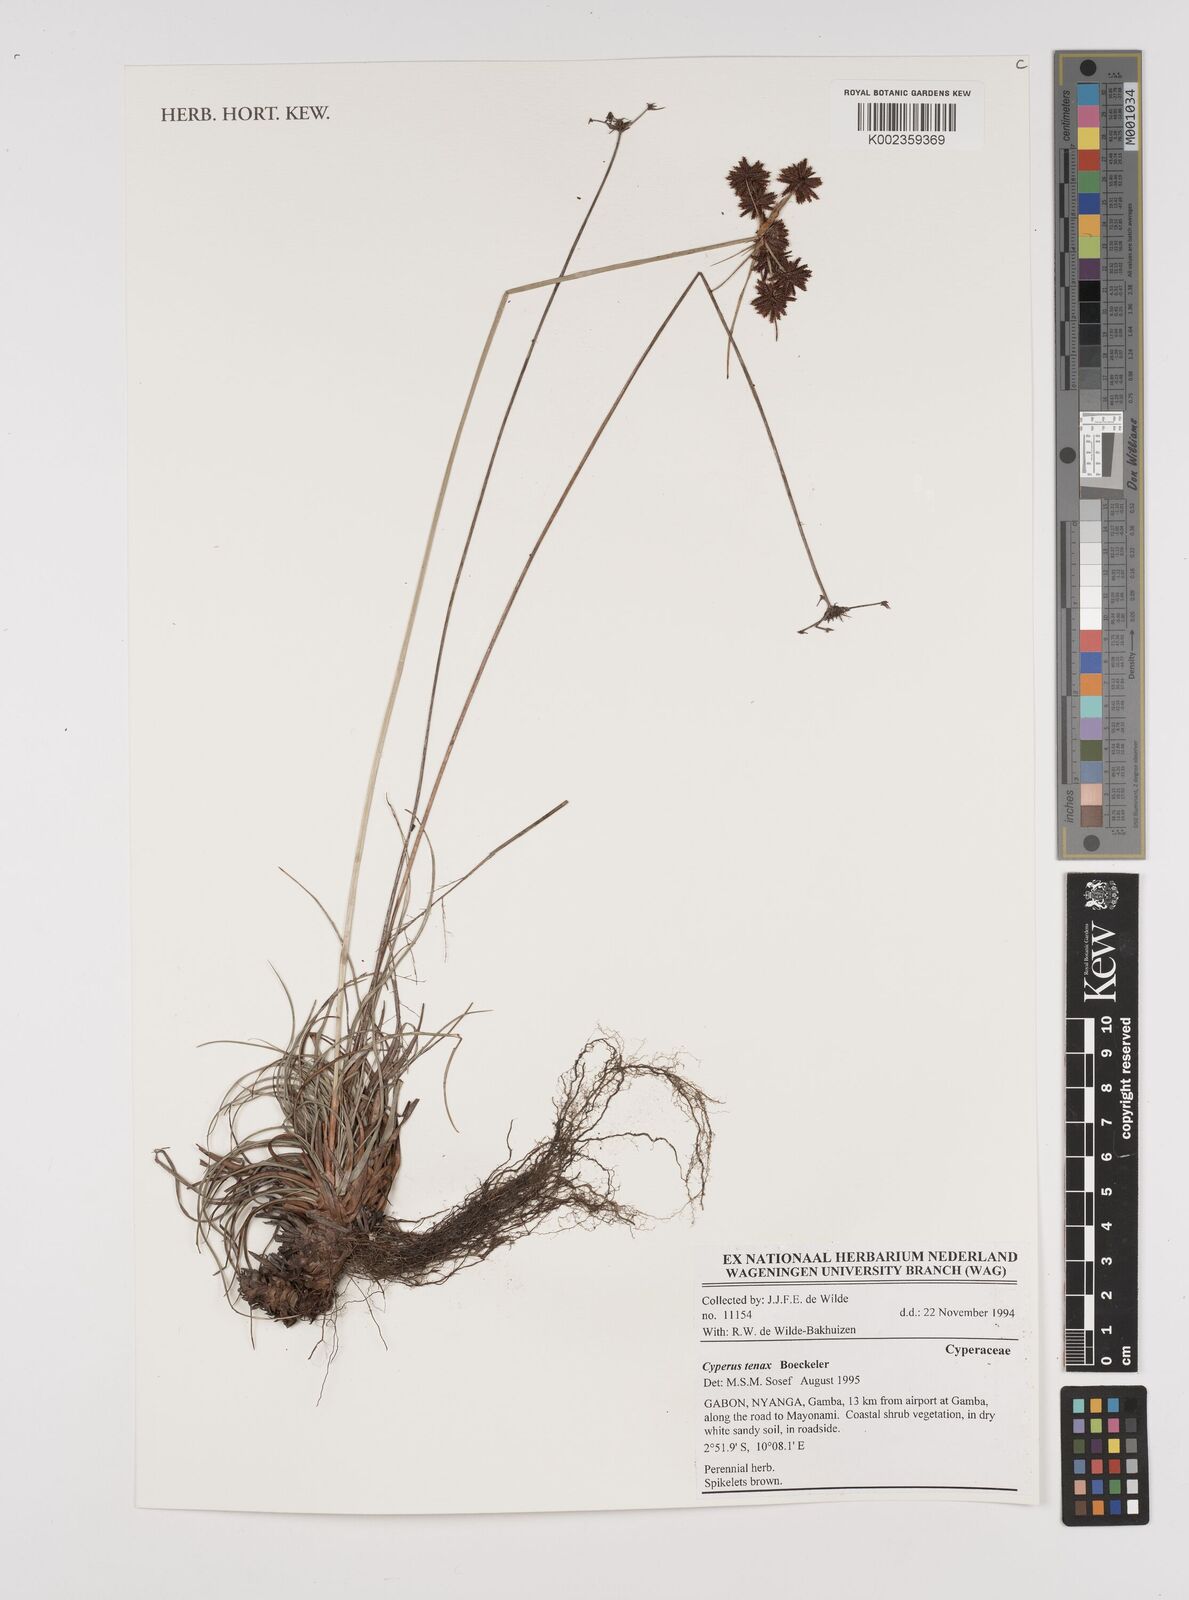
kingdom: Plantae
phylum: Tracheophyta
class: Liliopsida
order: Poales
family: Cyperaceae
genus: Cyperus
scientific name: Cyperus tenax
